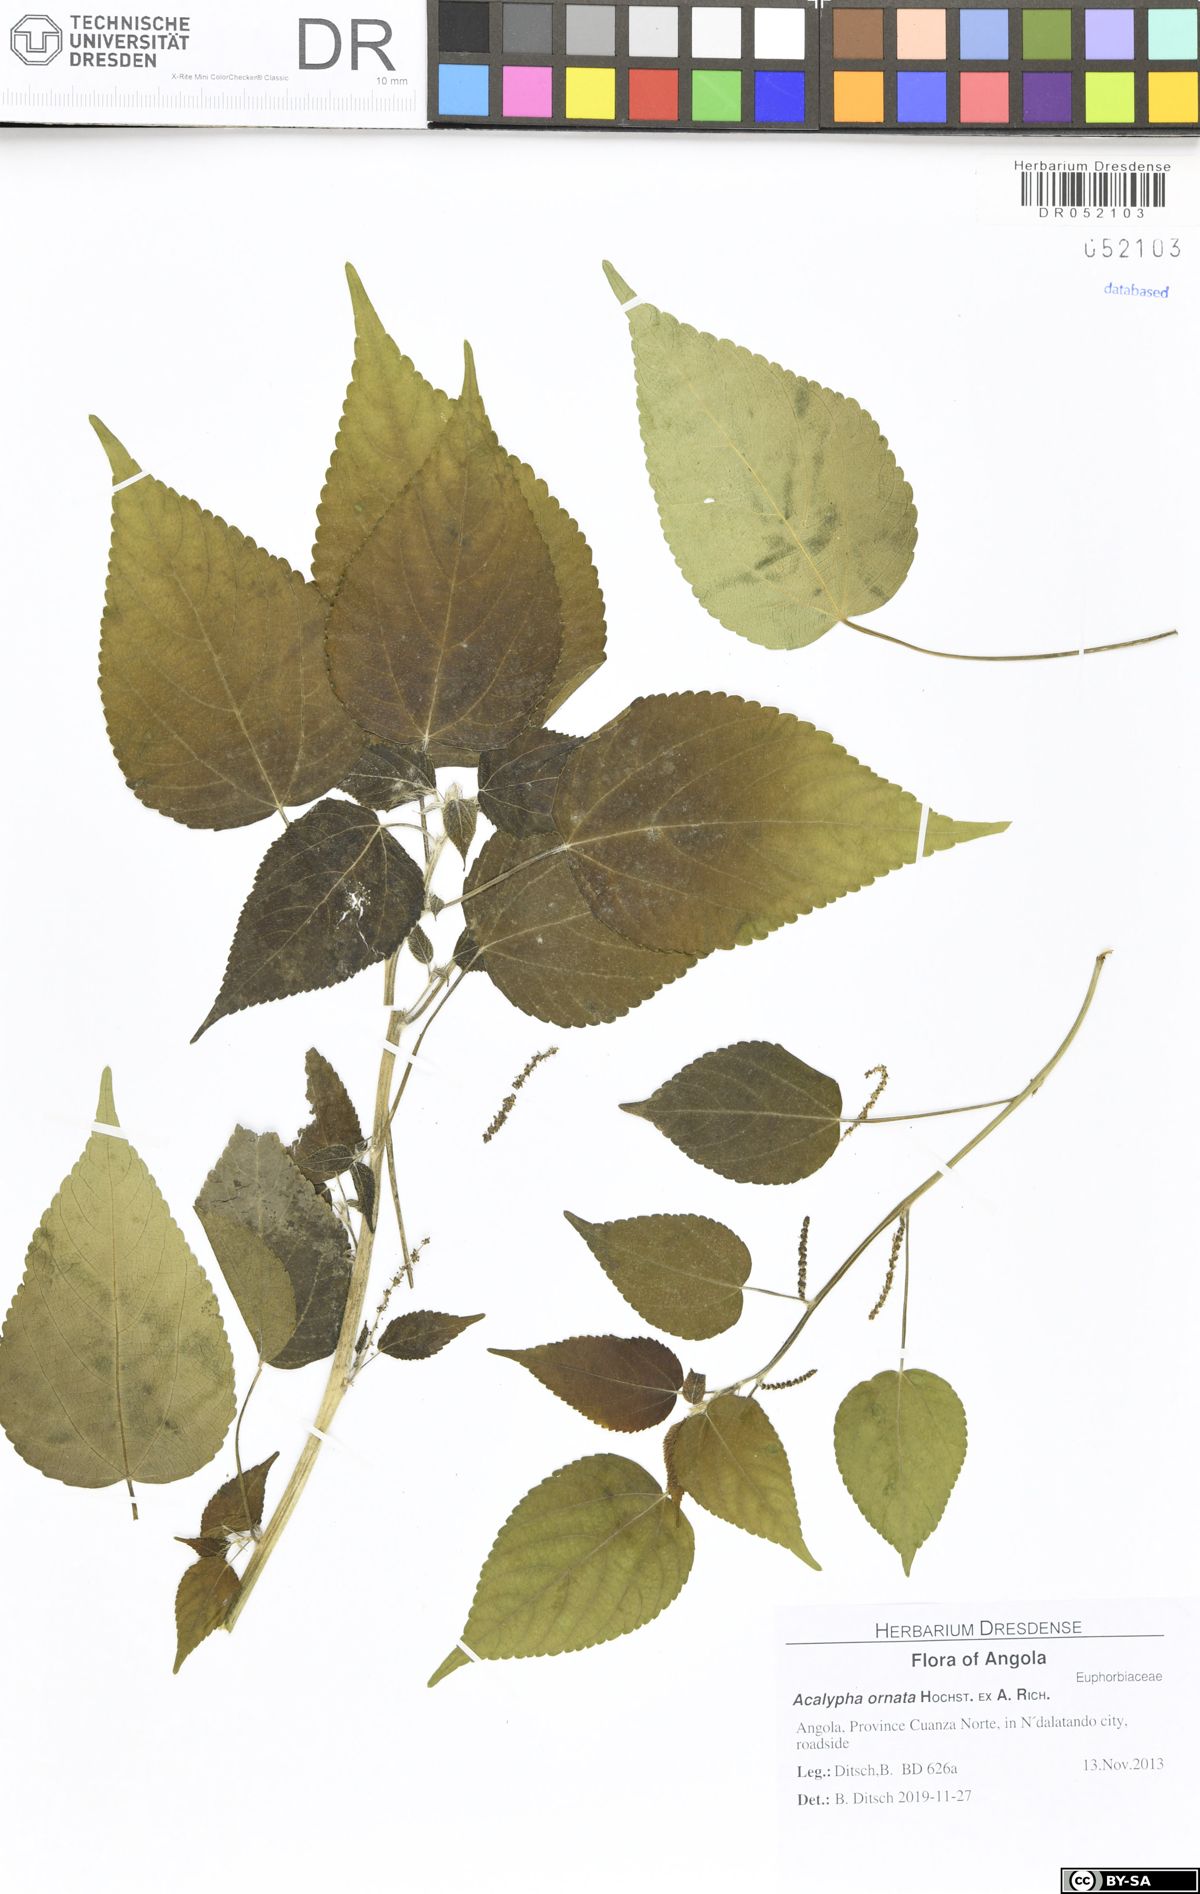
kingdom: Plantae
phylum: Tracheophyta
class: Magnoliopsida
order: Malpighiales
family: Euphorbiaceae
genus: Acalypha
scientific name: Acalypha ornata
